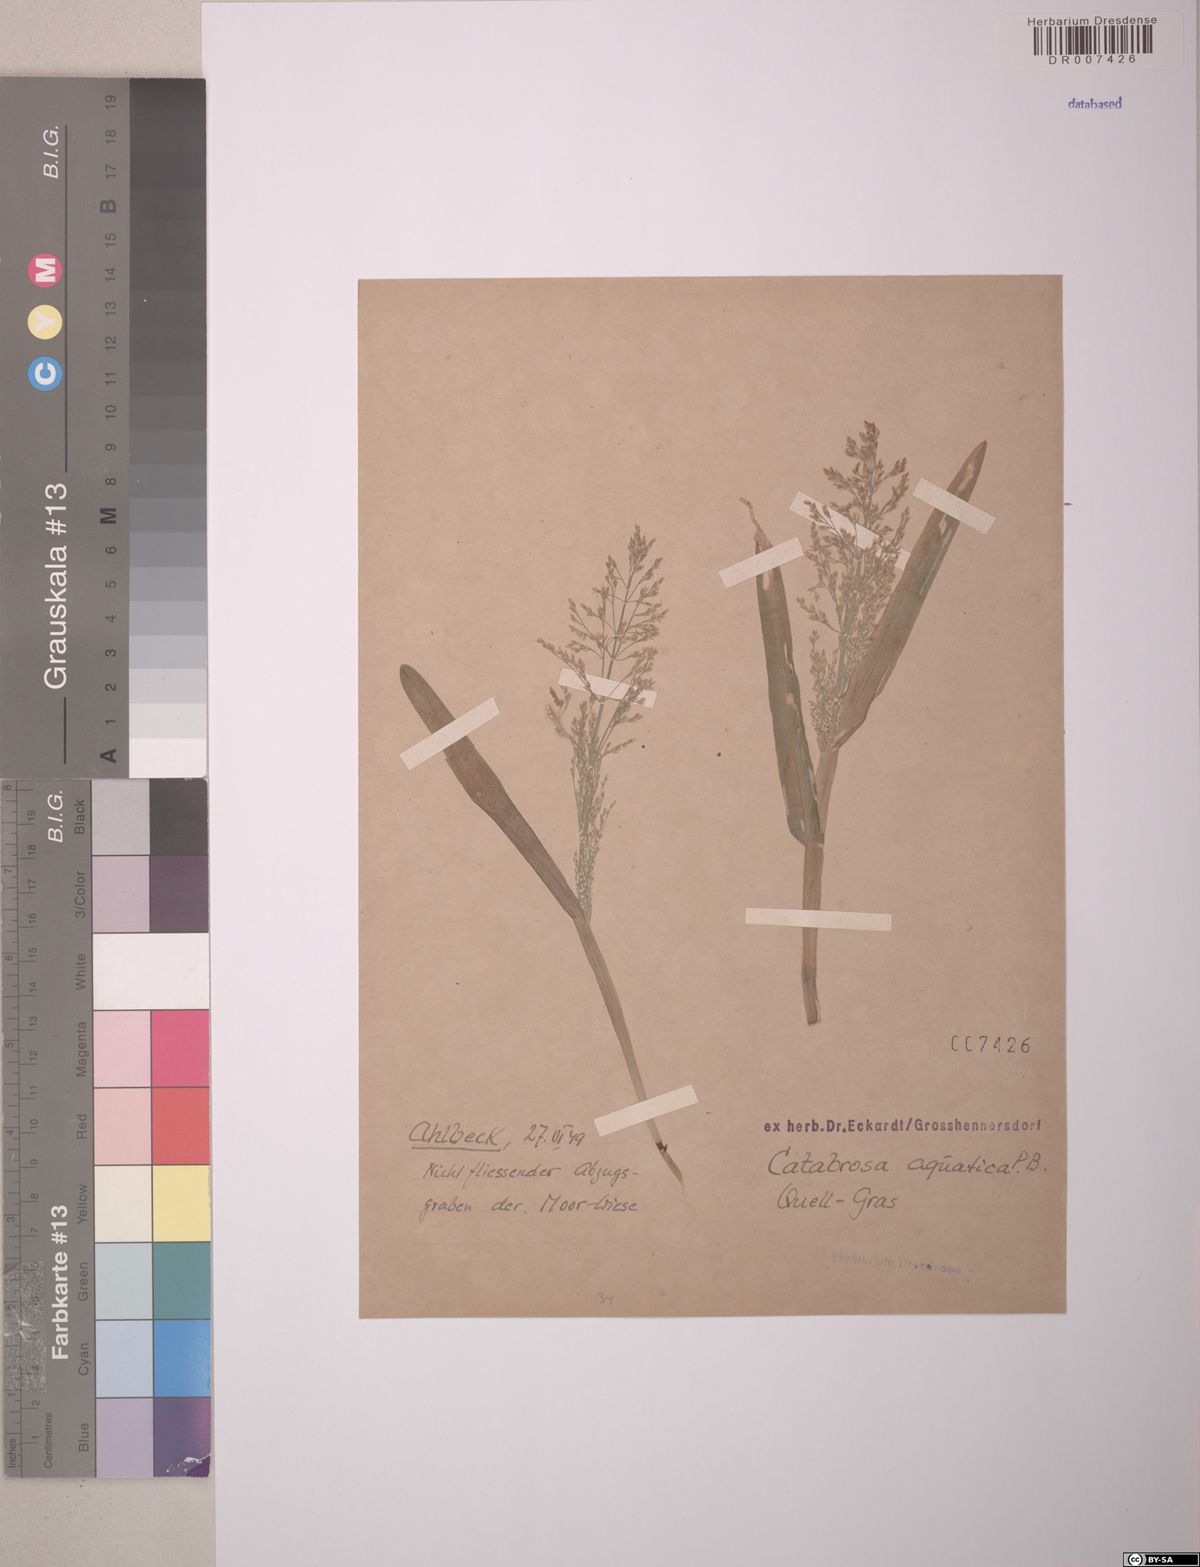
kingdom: Plantae
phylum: Tracheophyta
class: Liliopsida
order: Poales
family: Poaceae
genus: Catabrosa
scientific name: Catabrosa aquatica
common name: Whorl-grass
